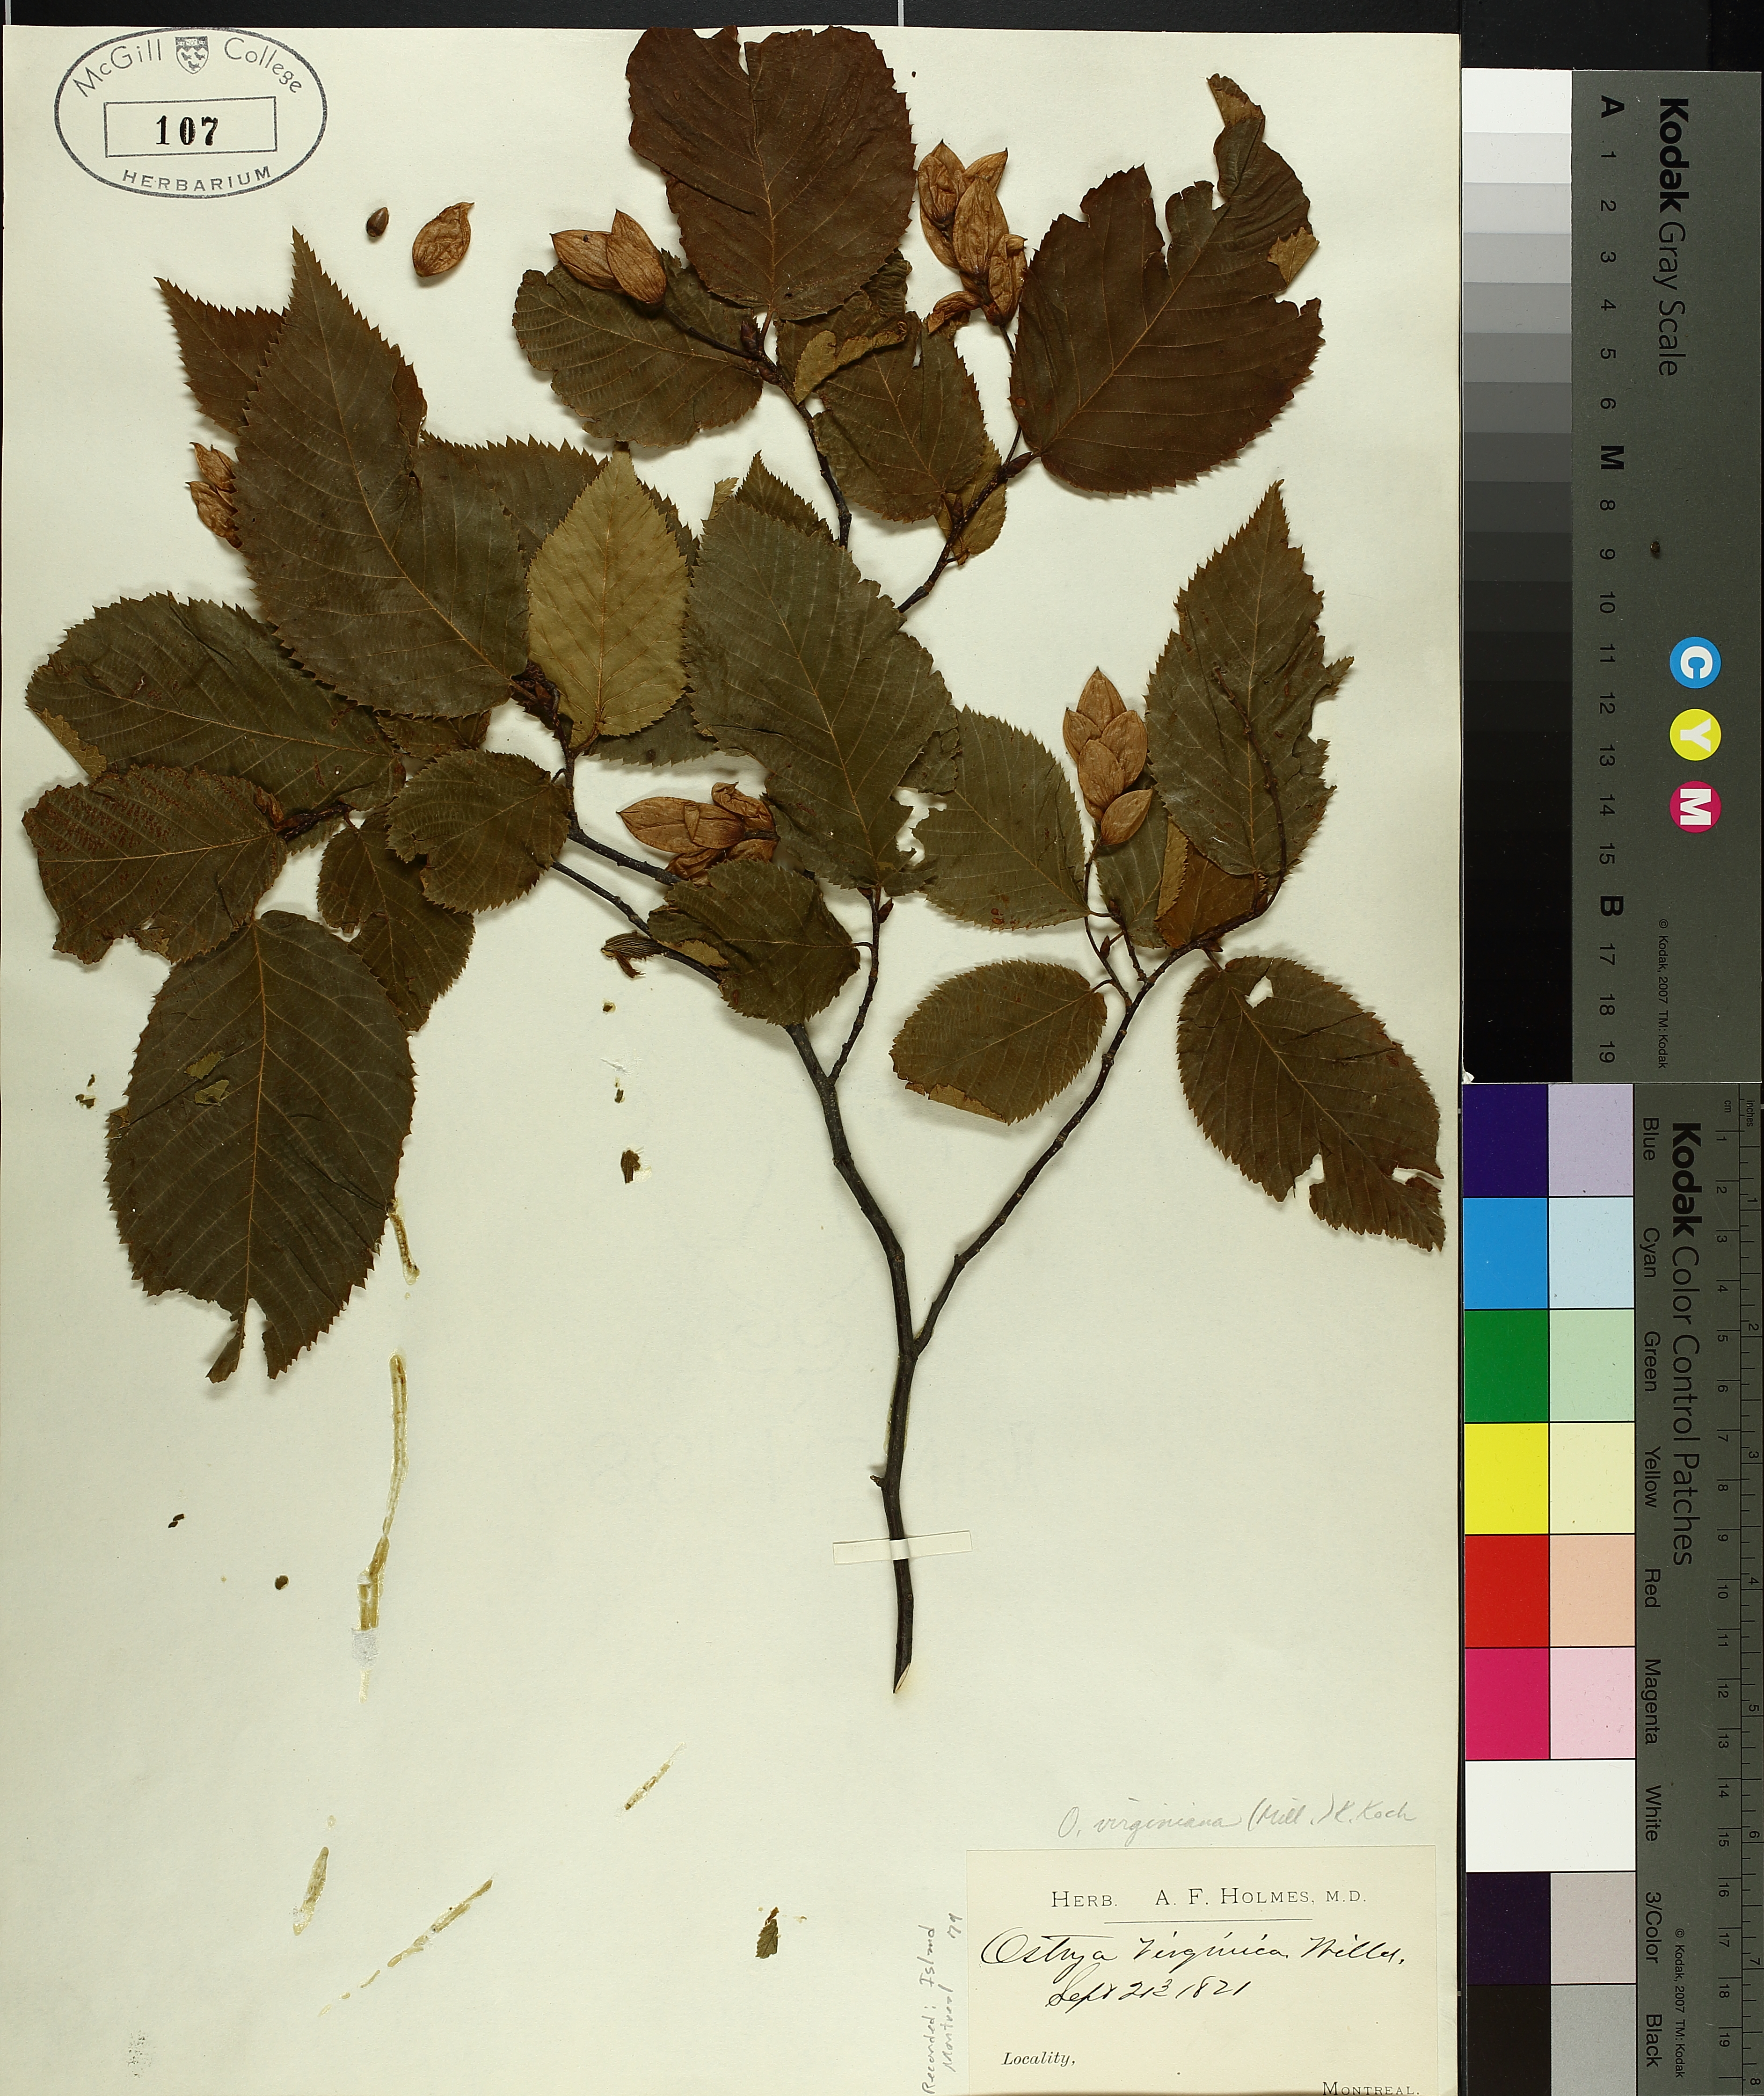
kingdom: Plantae
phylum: Tracheophyta
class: Magnoliopsida
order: Fagales
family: Betulaceae
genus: Ostrya
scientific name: Ostrya virginiana
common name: Ironwood
